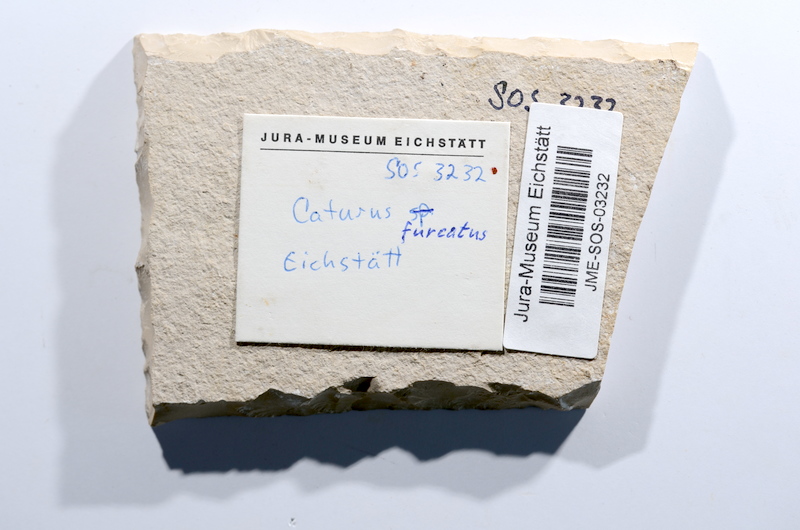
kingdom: Animalia
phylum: Chordata
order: Amiiformes
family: Caturidae
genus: Caturus
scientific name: Caturus furcatus
